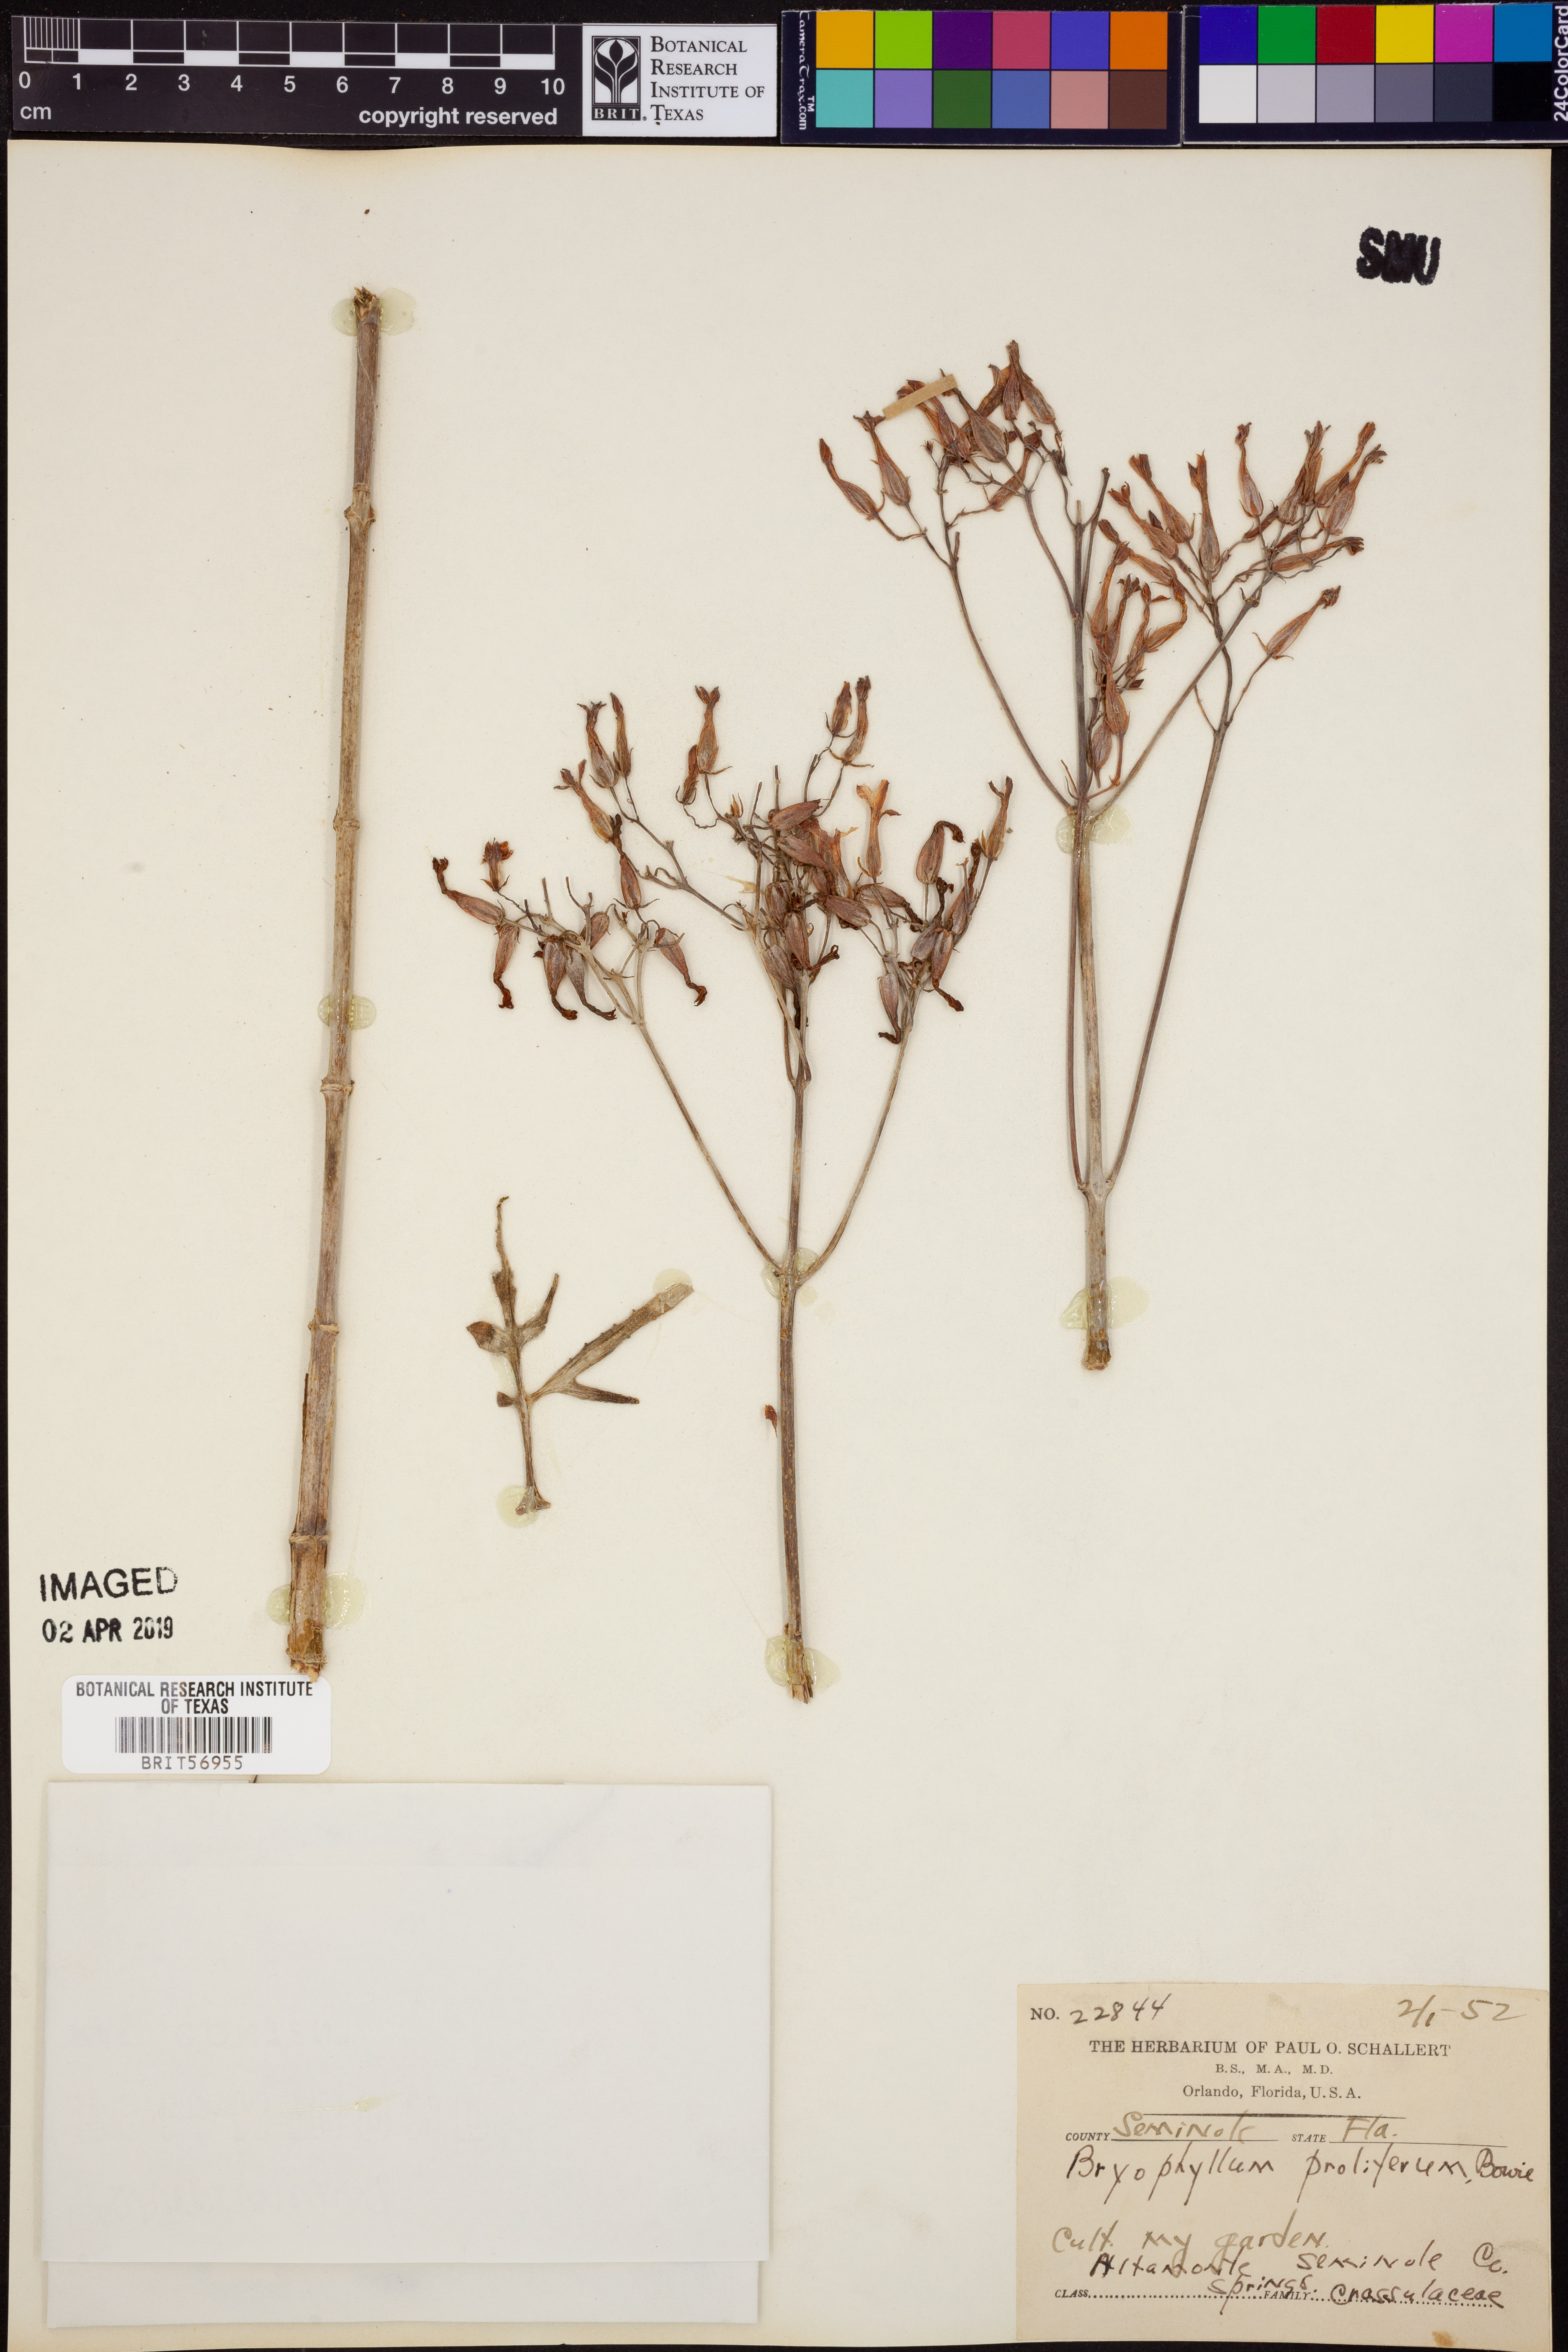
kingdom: Plantae
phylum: Tracheophyta
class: Magnoliopsida
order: Saxifragales
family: Crassulaceae
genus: Kalanchoe
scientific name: Kalanchoe prolifera
